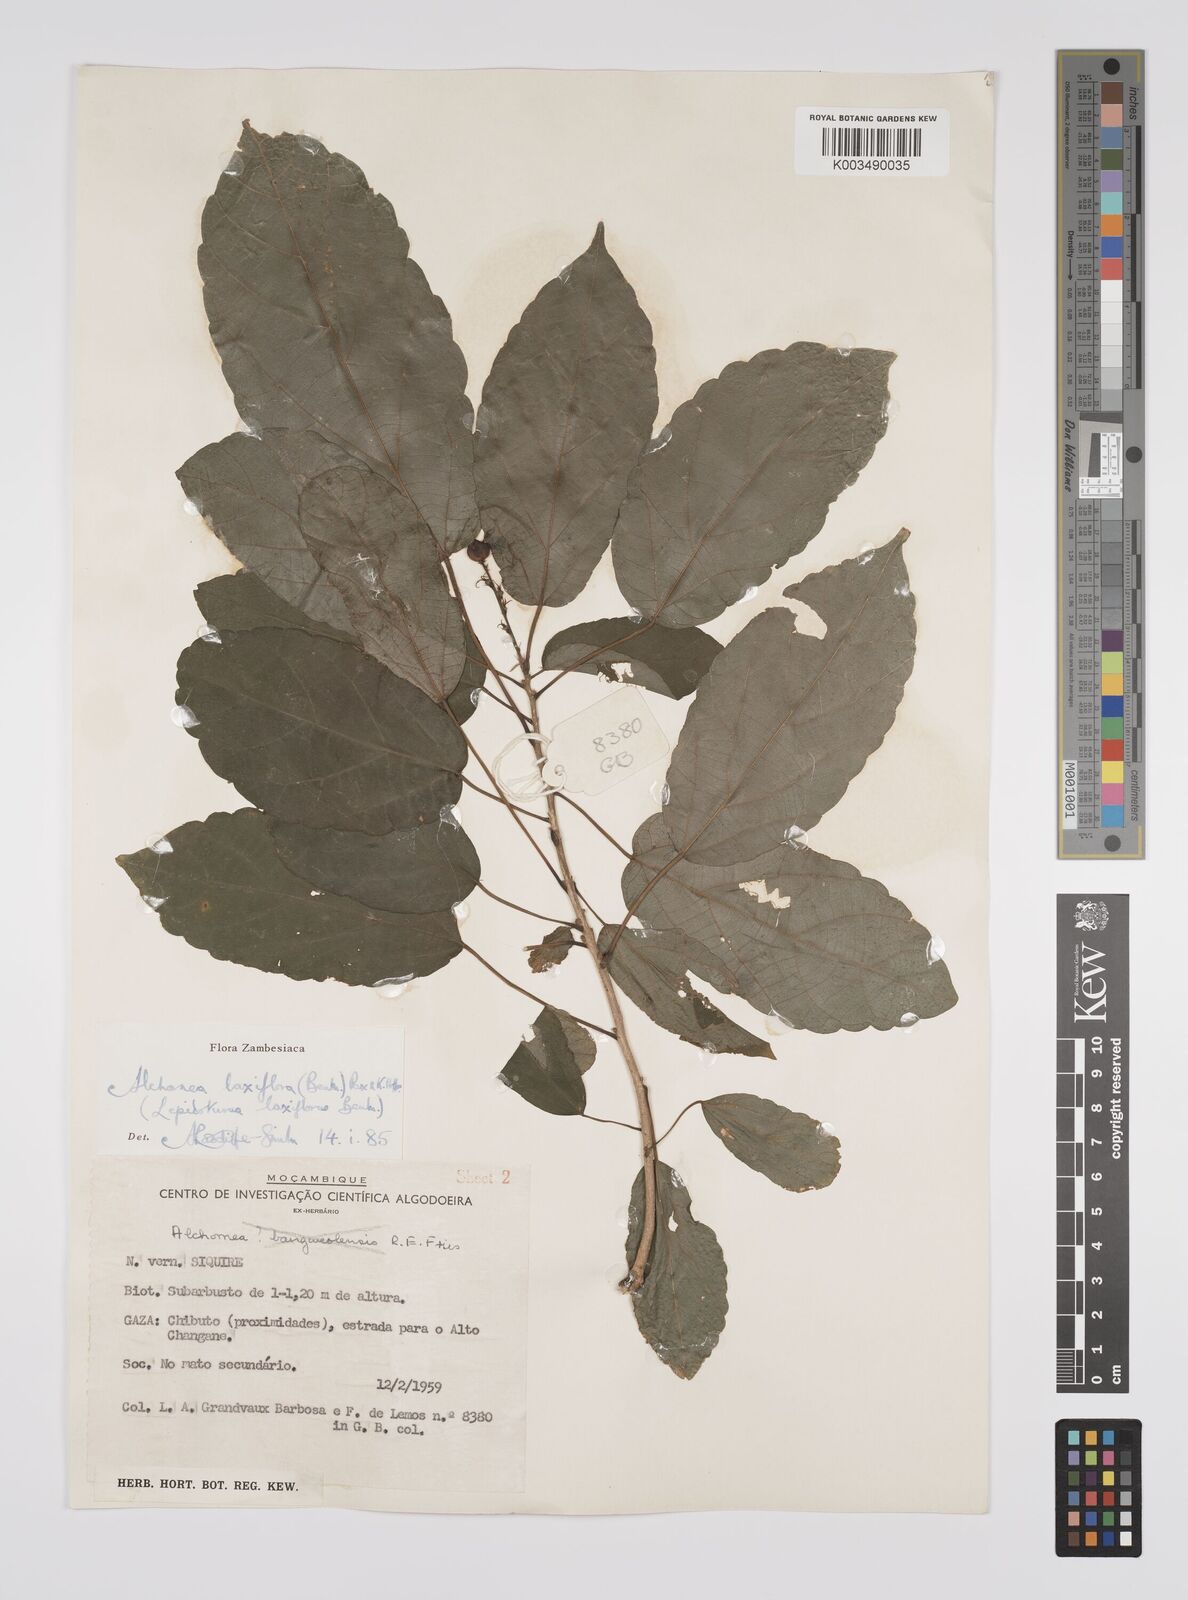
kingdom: Plantae
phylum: Tracheophyta
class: Magnoliopsida
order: Malpighiales
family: Euphorbiaceae
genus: Alchornea
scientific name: Alchornea laxiflora
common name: Lowveld bead-string
